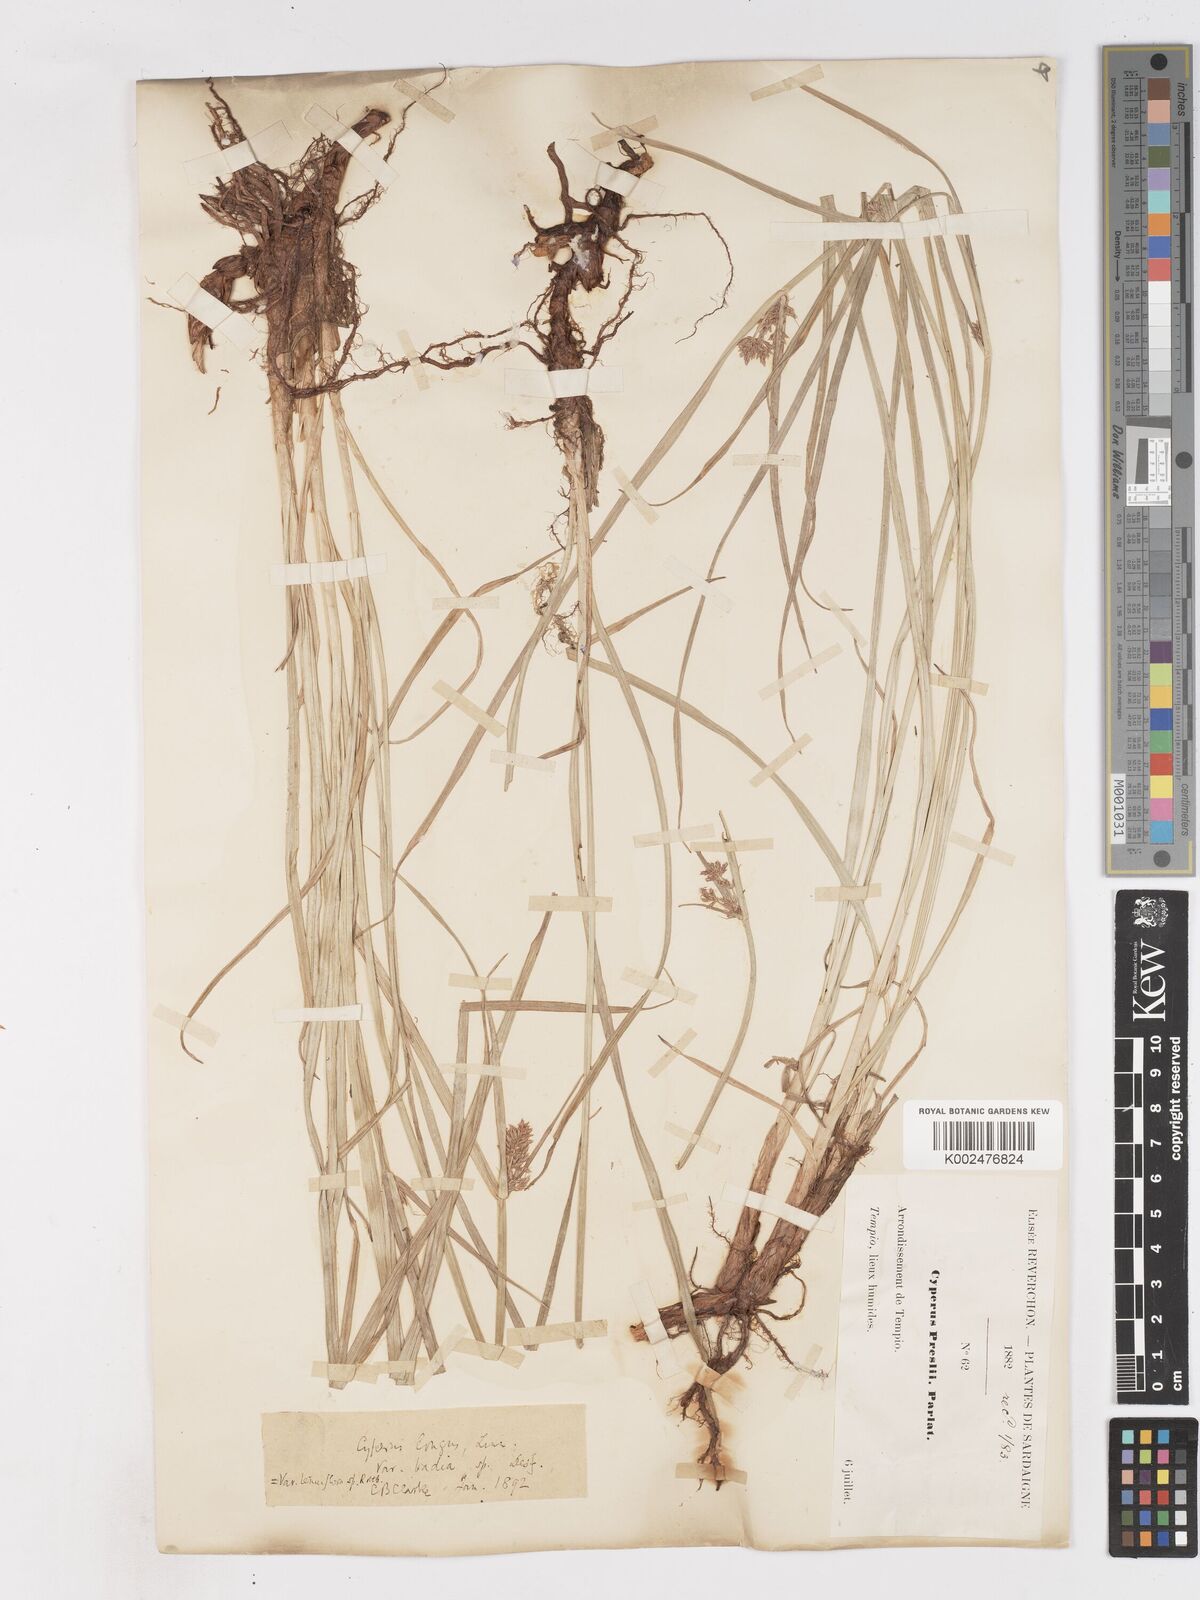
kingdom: Plantae
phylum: Tracheophyta
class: Liliopsida
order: Poales
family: Cyperaceae
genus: Cyperus
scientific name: Cyperus longus
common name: Galingale
